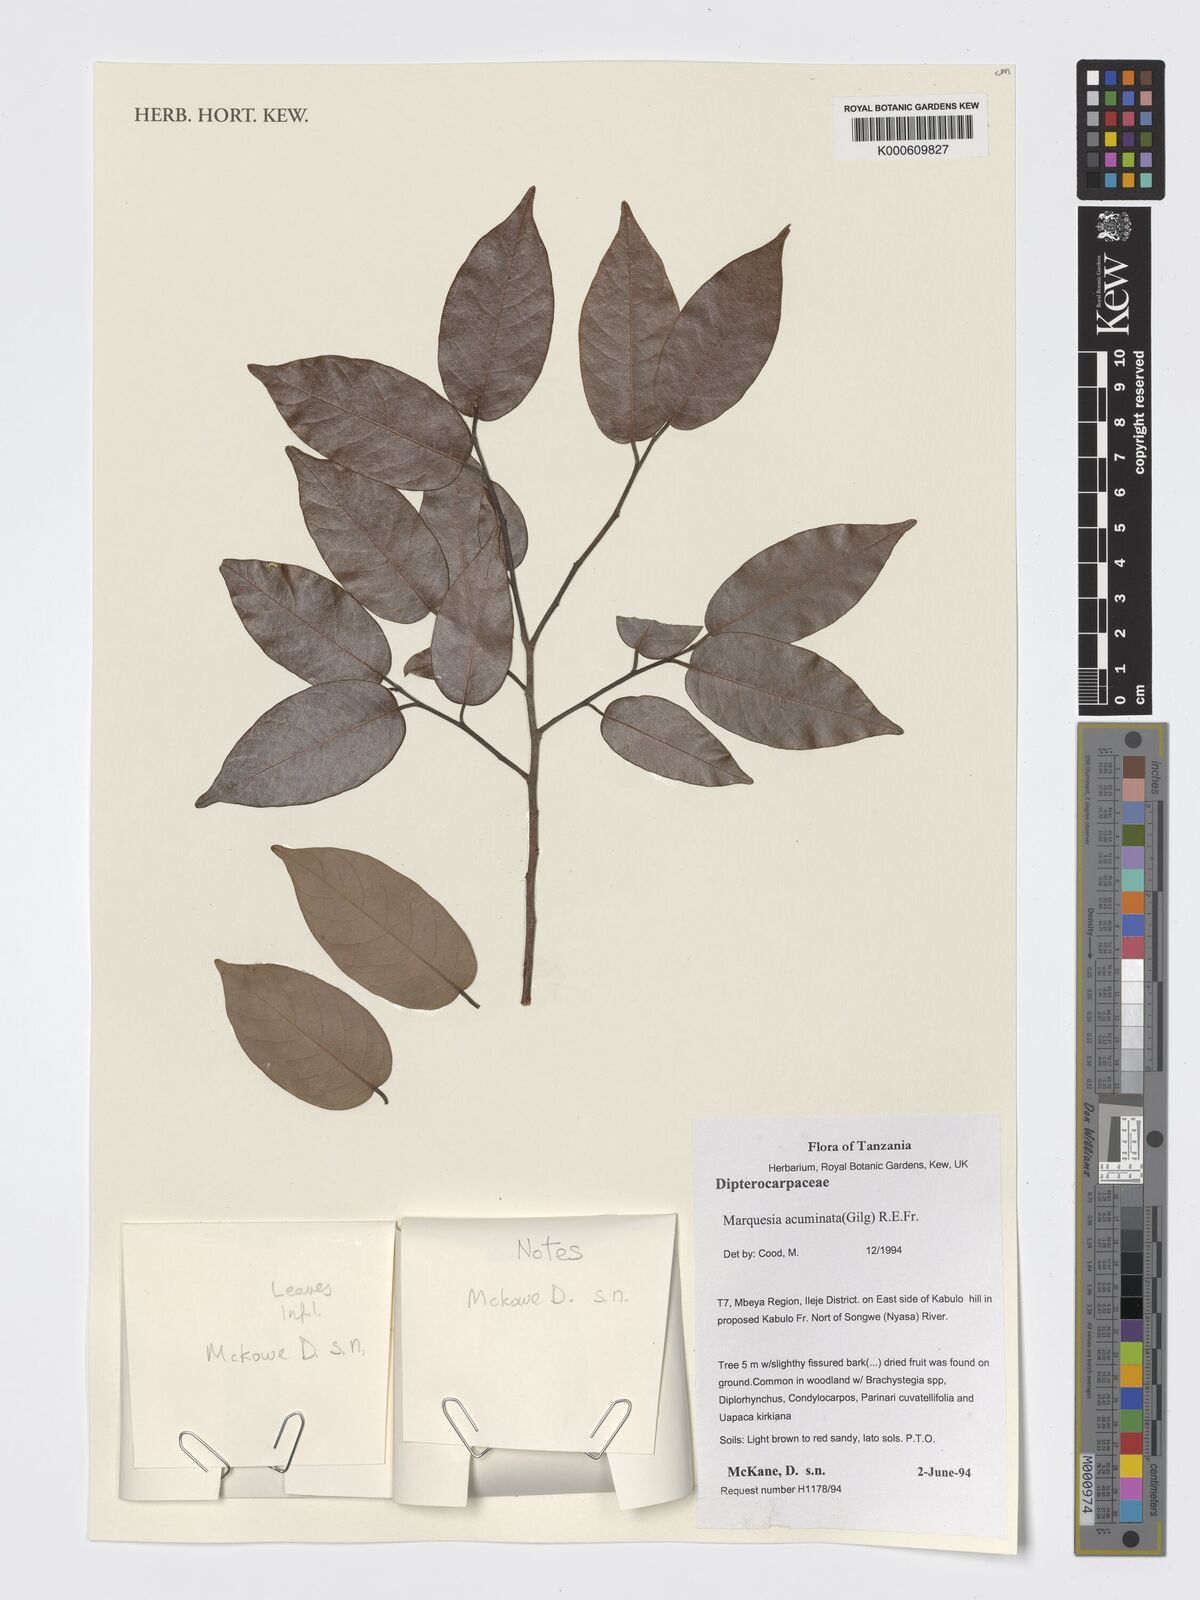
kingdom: Plantae
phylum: Tracheophyta
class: Magnoliopsida
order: Malvales
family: Dipterocarpaceae
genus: Marquesia
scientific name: Marquesia acuminata
